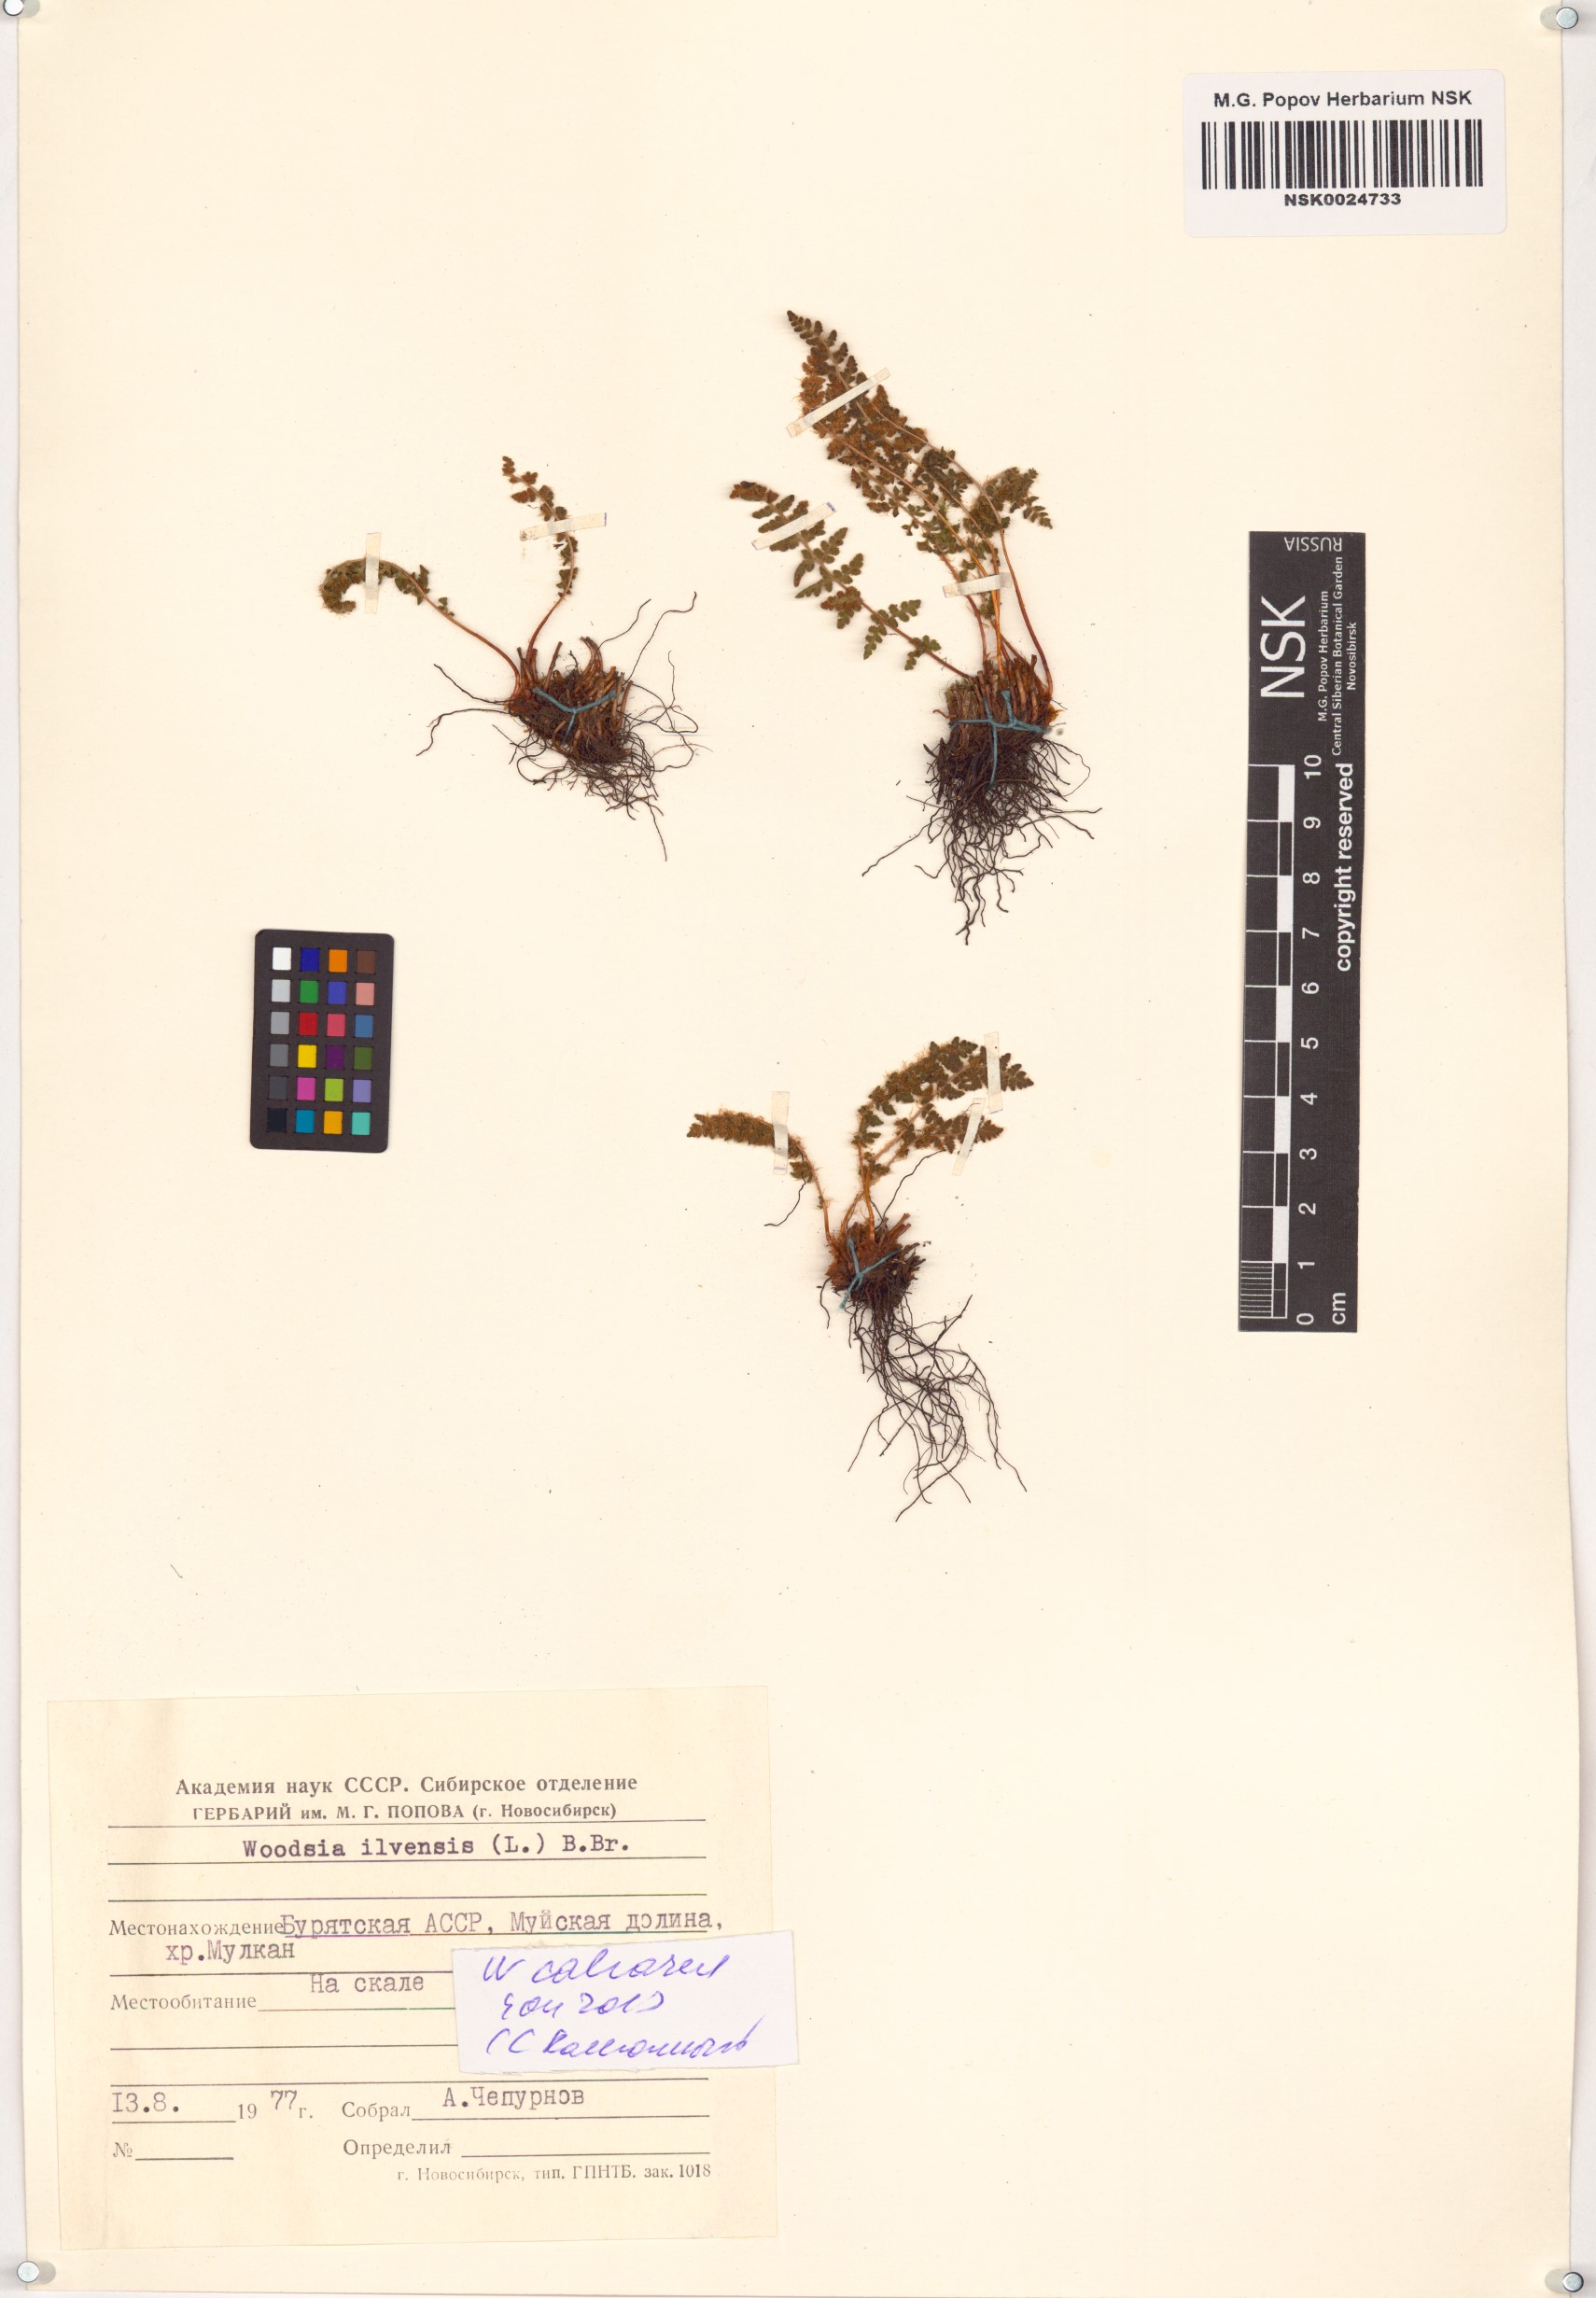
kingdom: Plantae
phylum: Tracheophyta
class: Polypodiopsida
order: Polypodiales
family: Woodsiaceae
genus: Woodsia
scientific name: Woodsia calcarea
